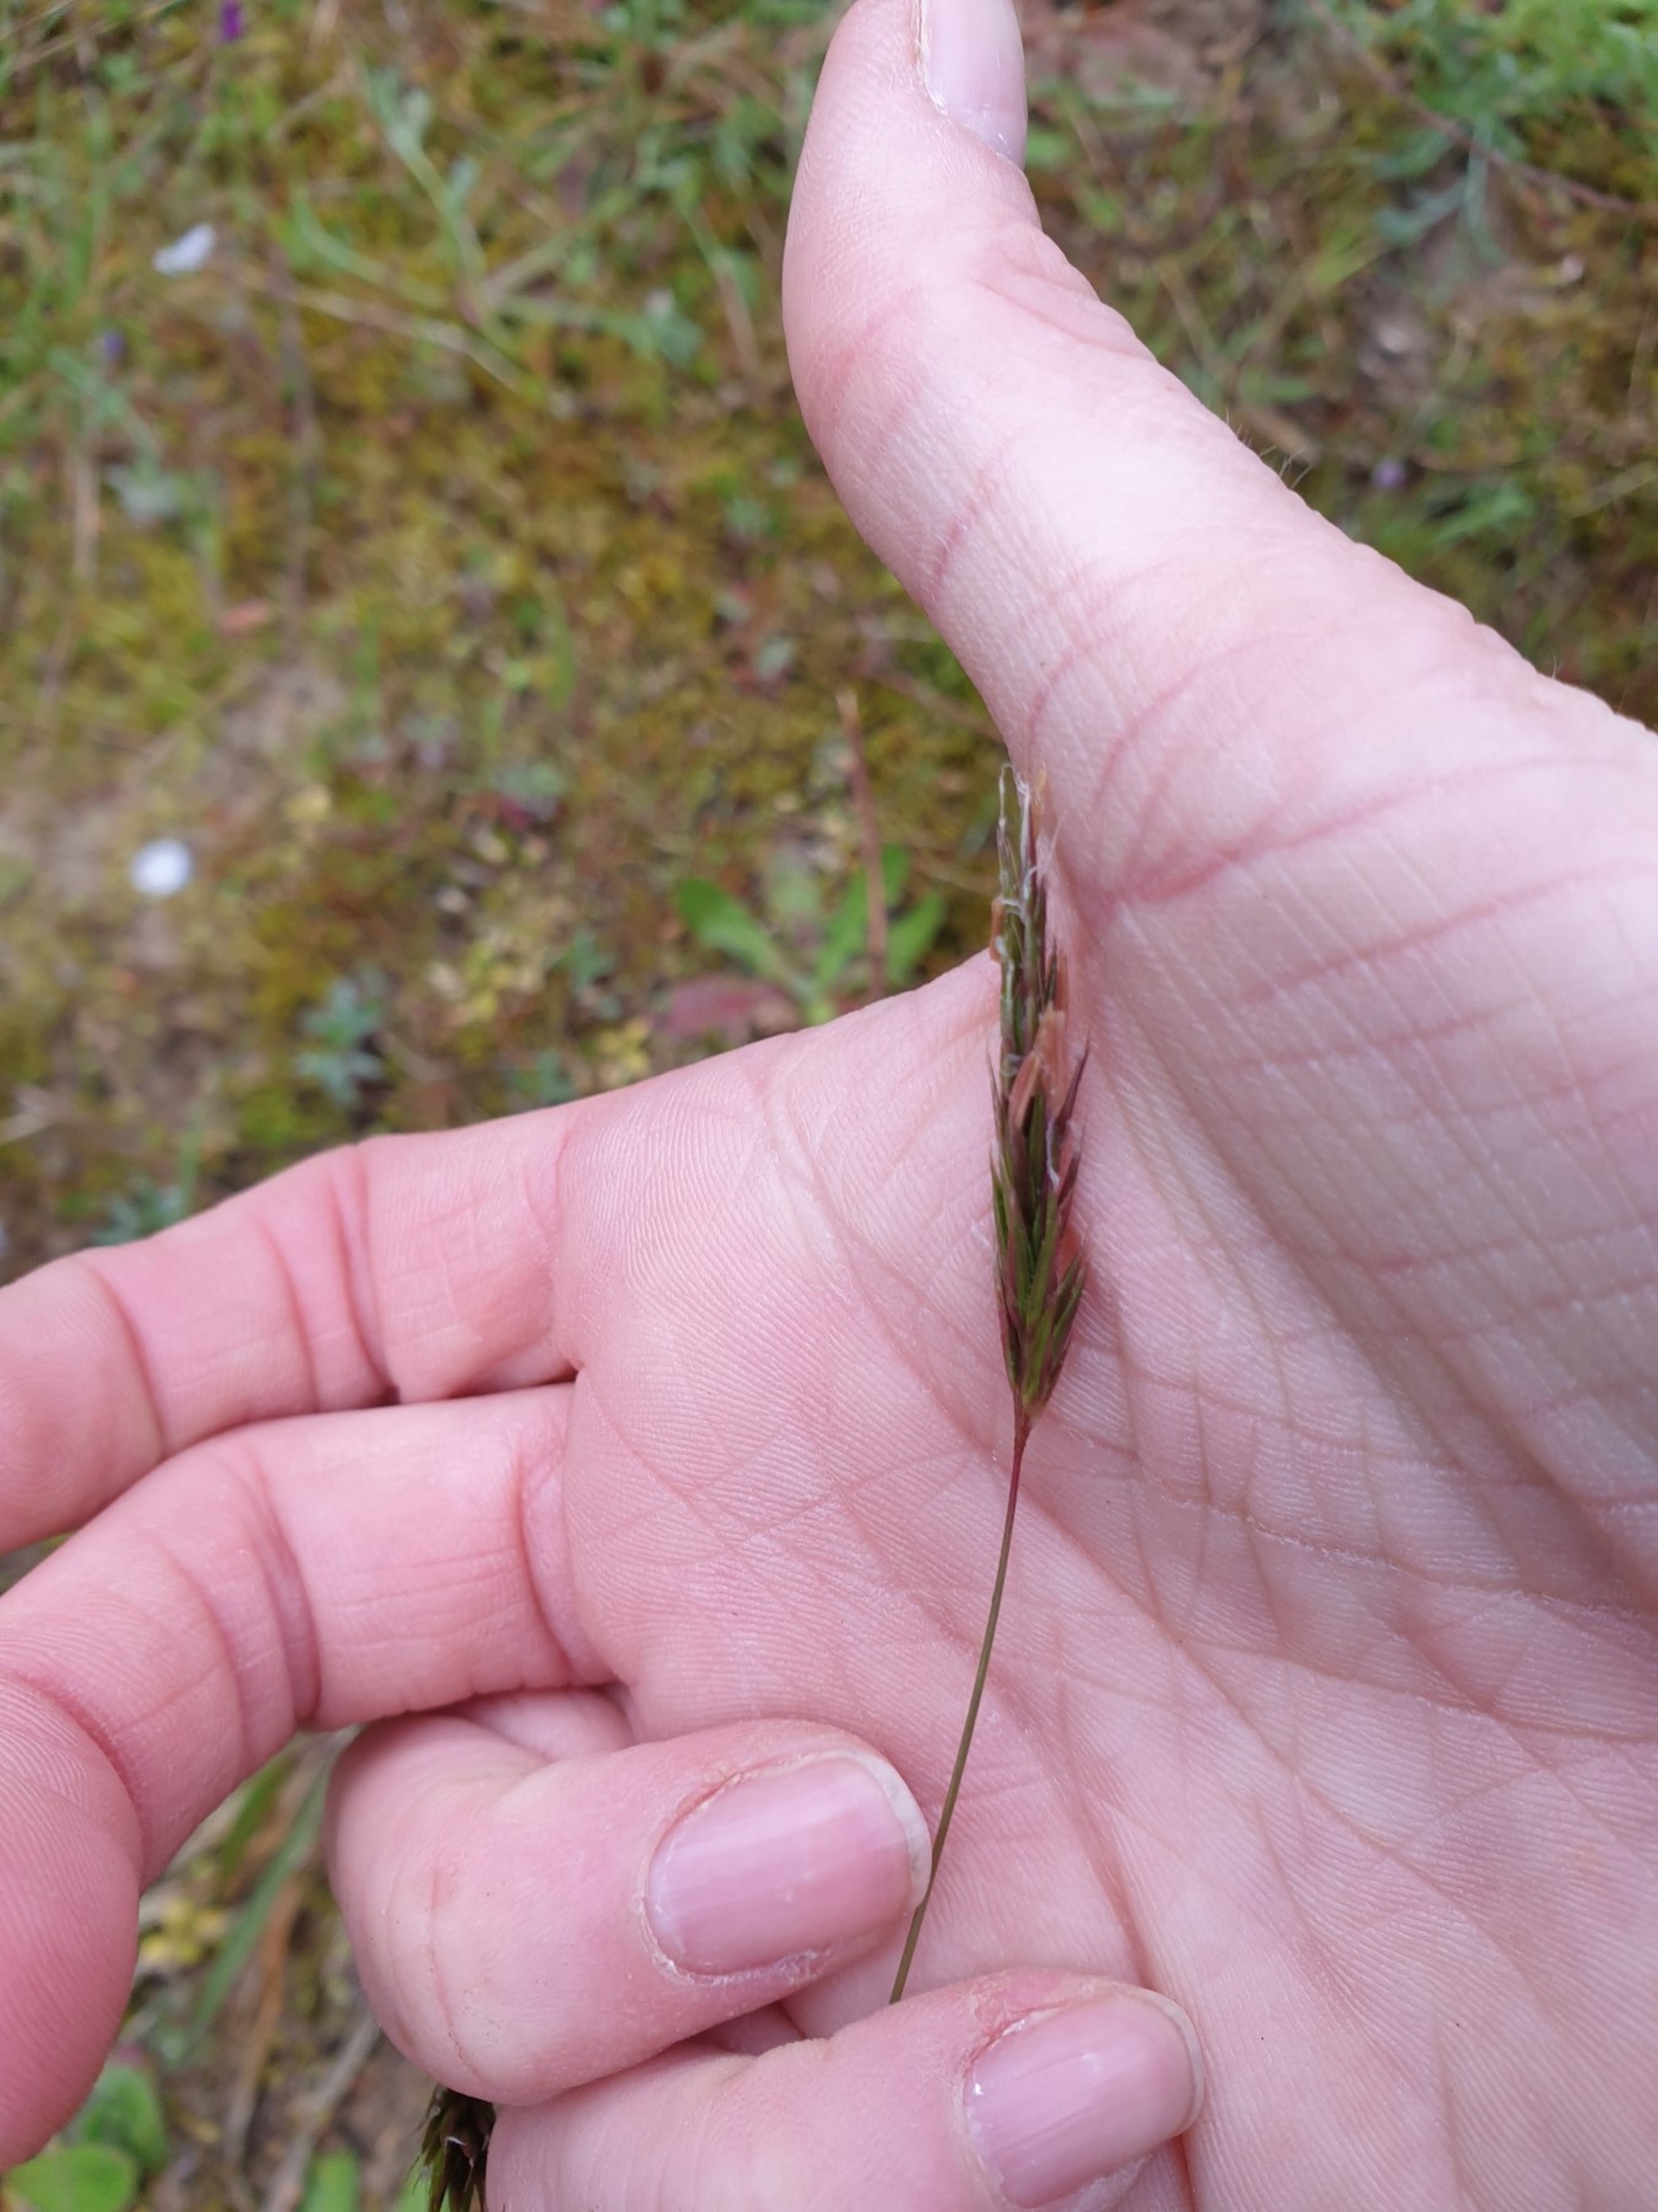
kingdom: Plantae
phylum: Tracheophyta
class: Liliopsida
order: Poales
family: Poaceae
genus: Anthoxanthum
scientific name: Anthoxanthum odoratum
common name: Vellugtende gulaks
